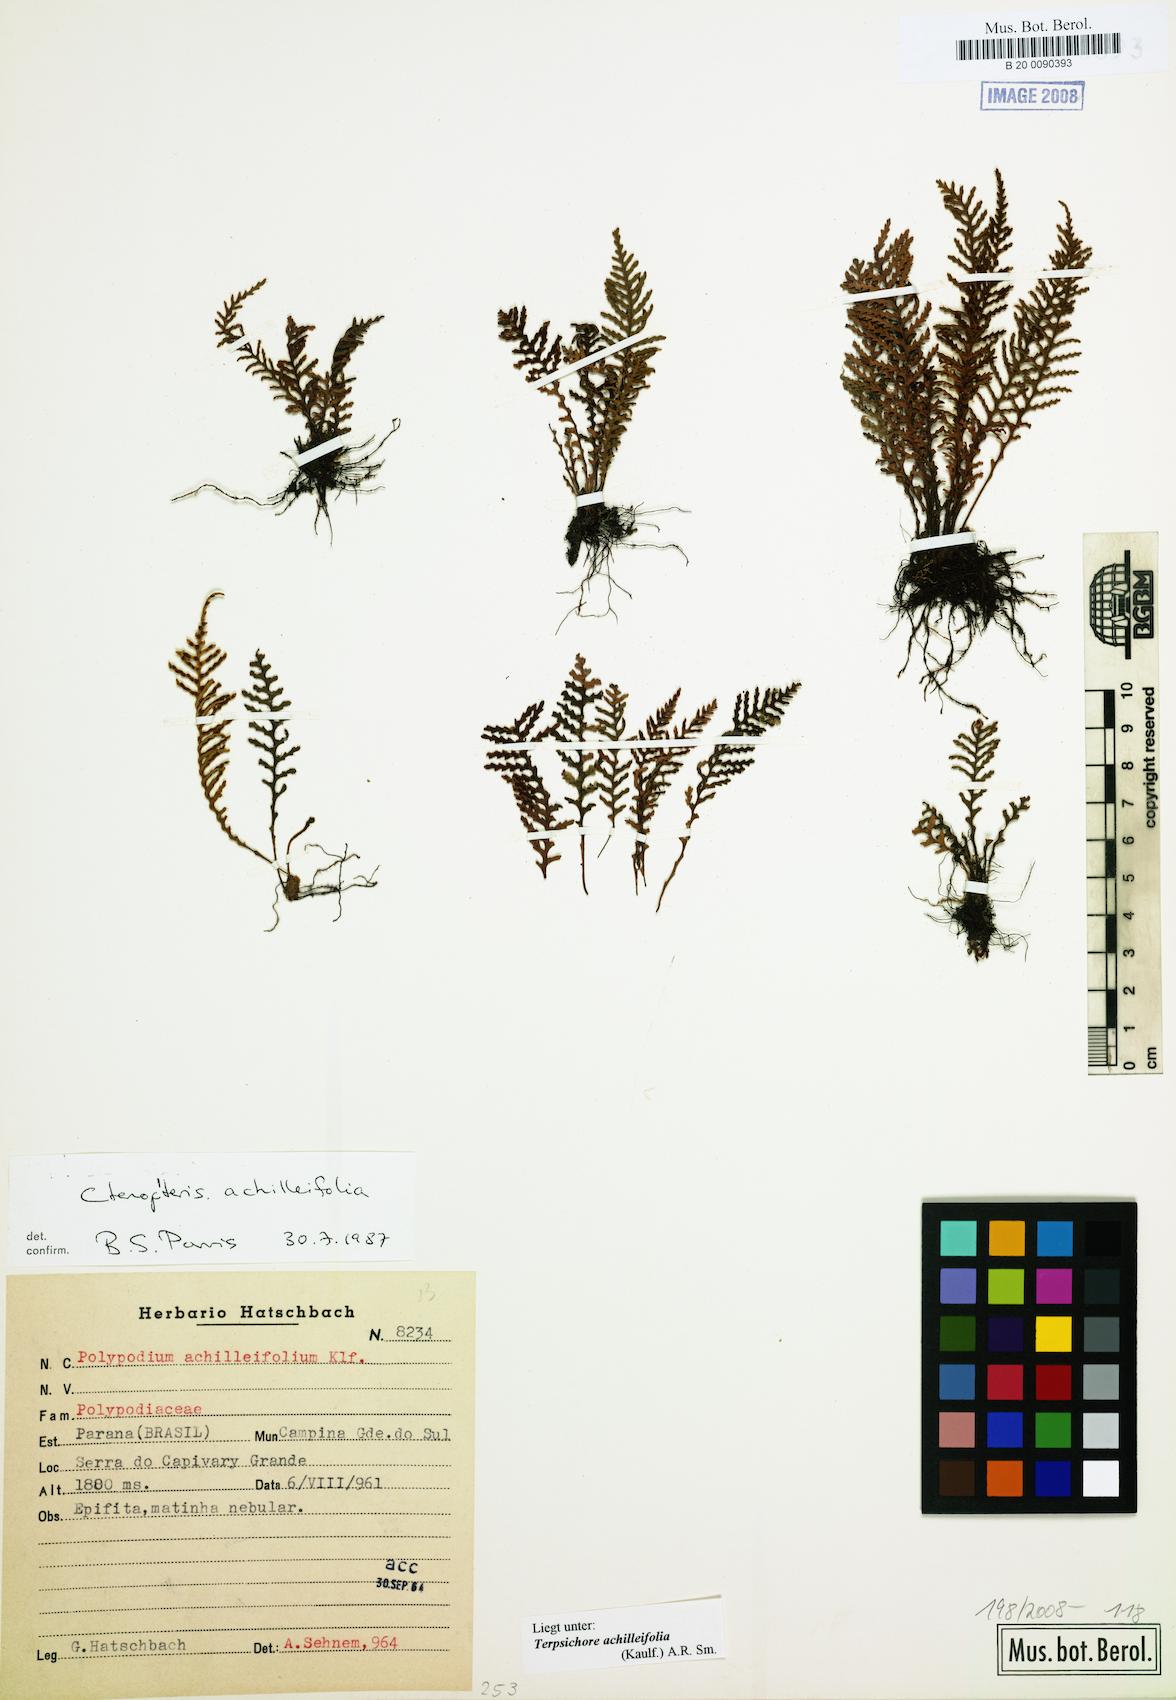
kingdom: Plantae
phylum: Tracheophyta
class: Polypodiopsida
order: Polypodiales
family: Polypodiaceae
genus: Moranopteris
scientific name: Moranopteris achilleifolia
